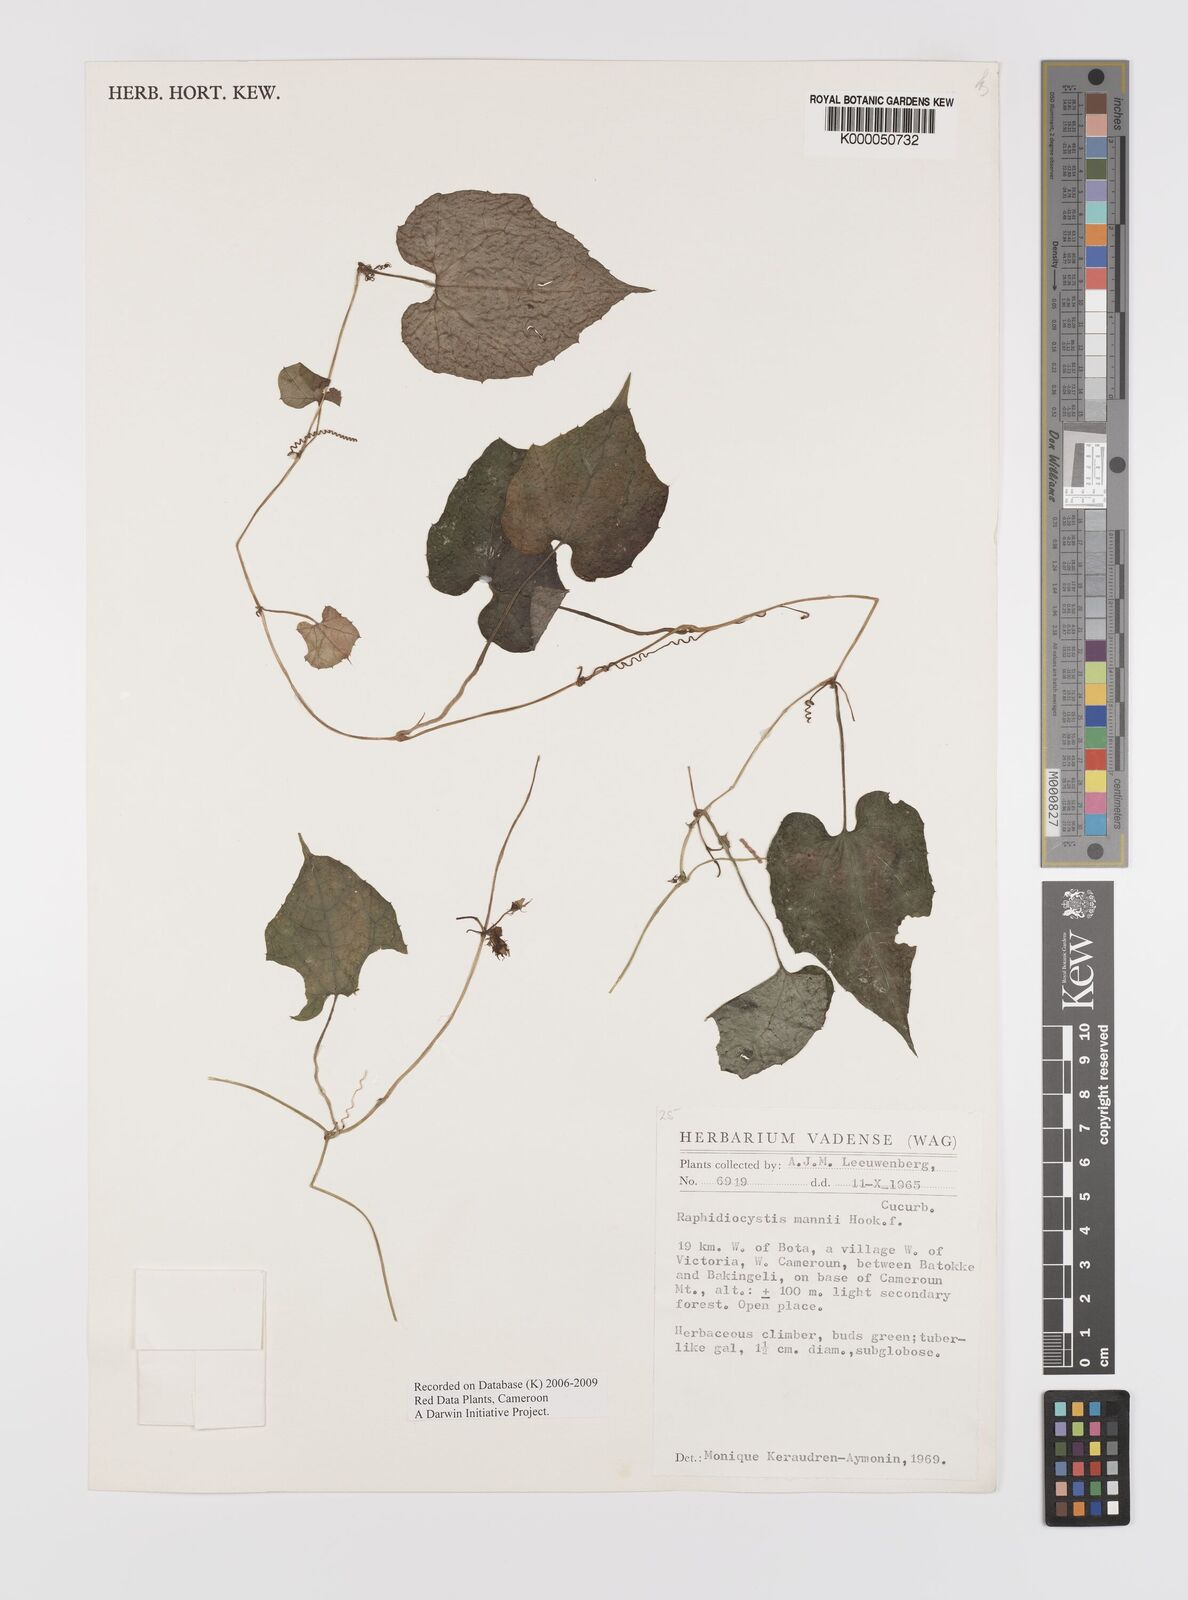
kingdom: Plantae
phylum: Tracheophyta
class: Magnoliopsida
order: Cucurbitales
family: Cucurbitaceae
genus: Raphidiocystis
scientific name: Raphidiocystis mannii
